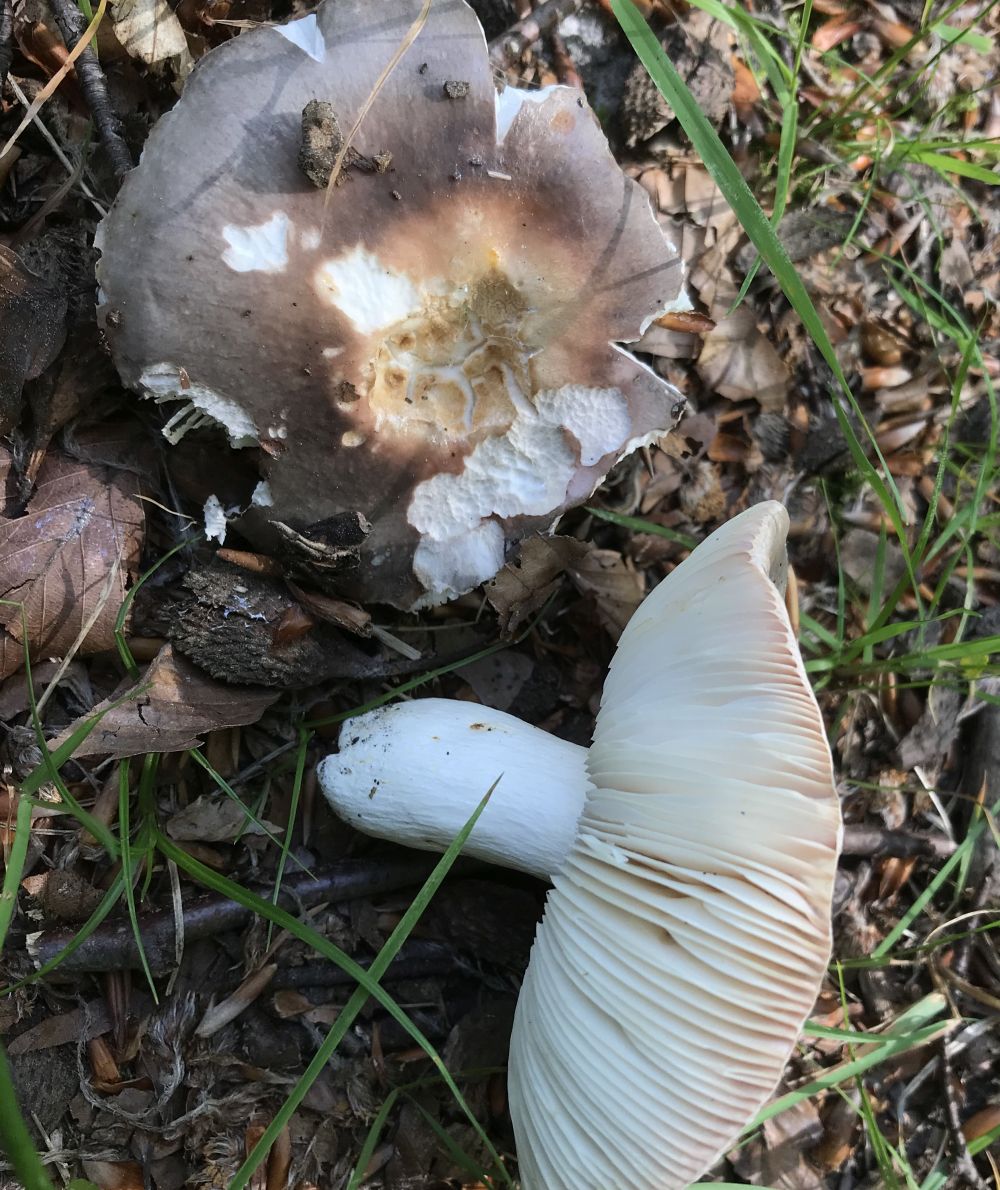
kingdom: Fungi
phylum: Basidiomycota
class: Agaricomycetes
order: Russulales
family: Russulaceae
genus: Russula
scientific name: Russula cyanoxantha
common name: broget skørhat
